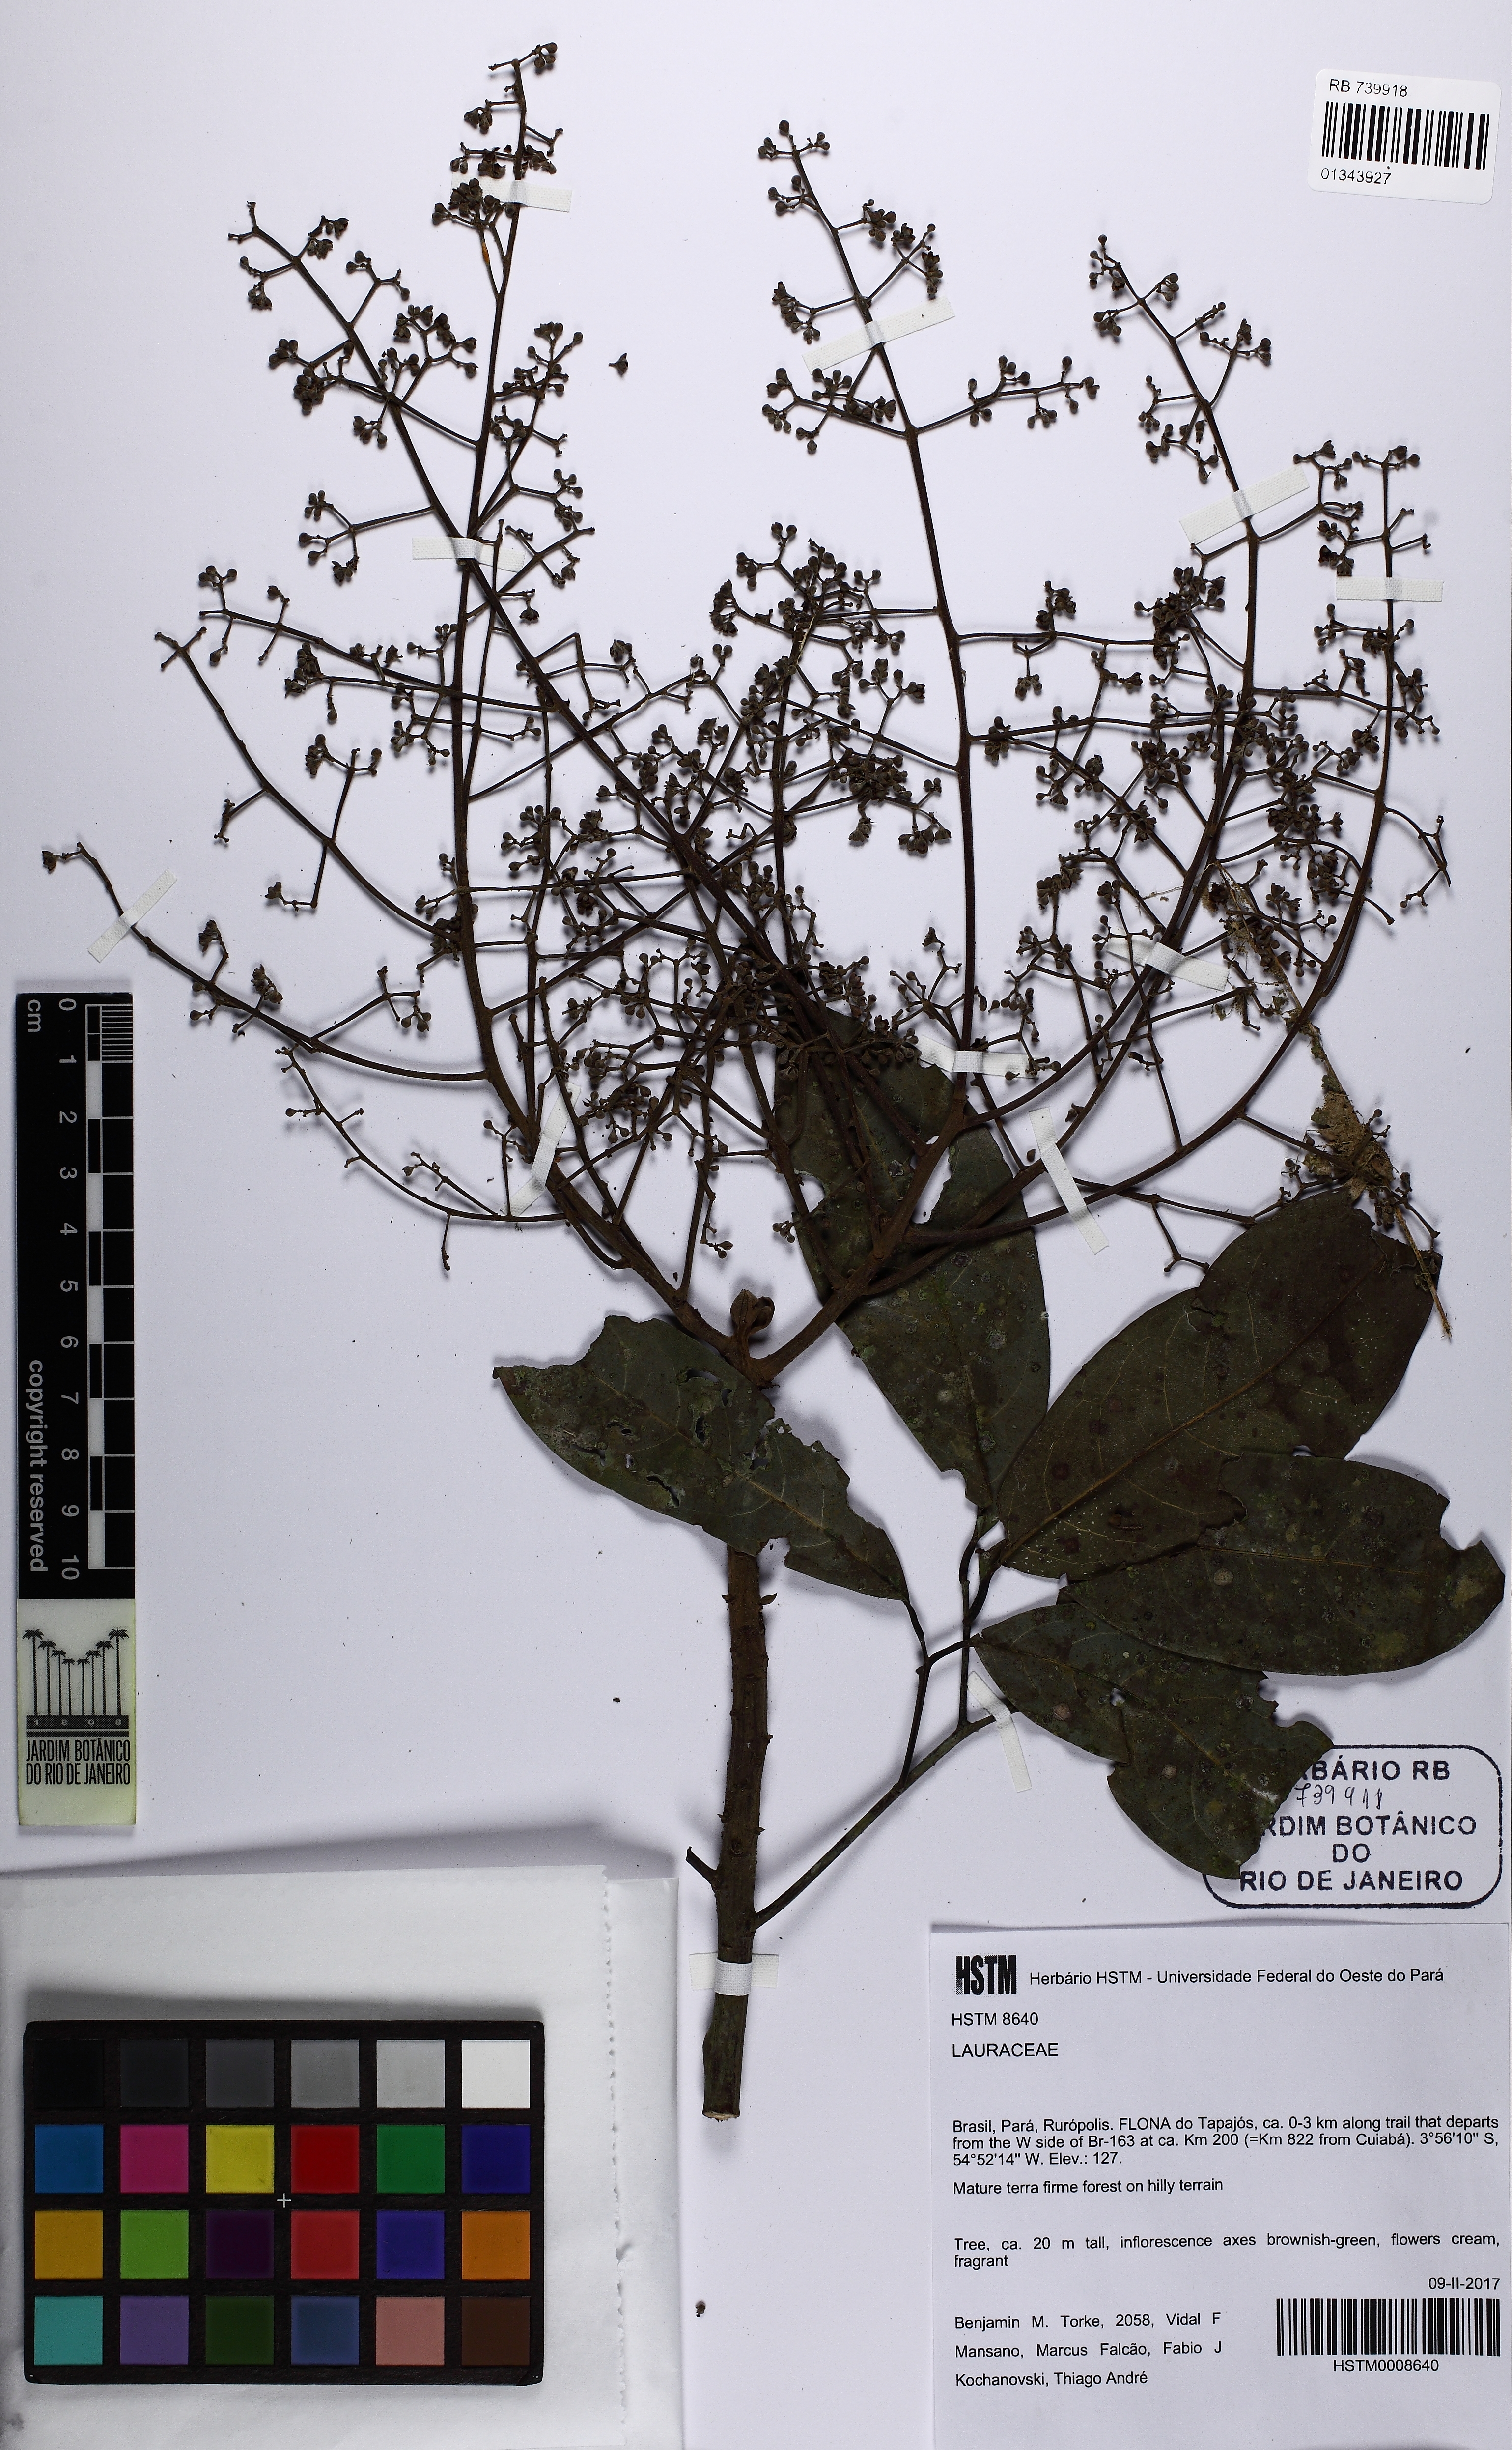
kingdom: Plantae
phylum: Tracheophyta
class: Magnoliopsida
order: Laurales
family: Lauraceae
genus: Ocotea
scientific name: Ocotea cujumary
